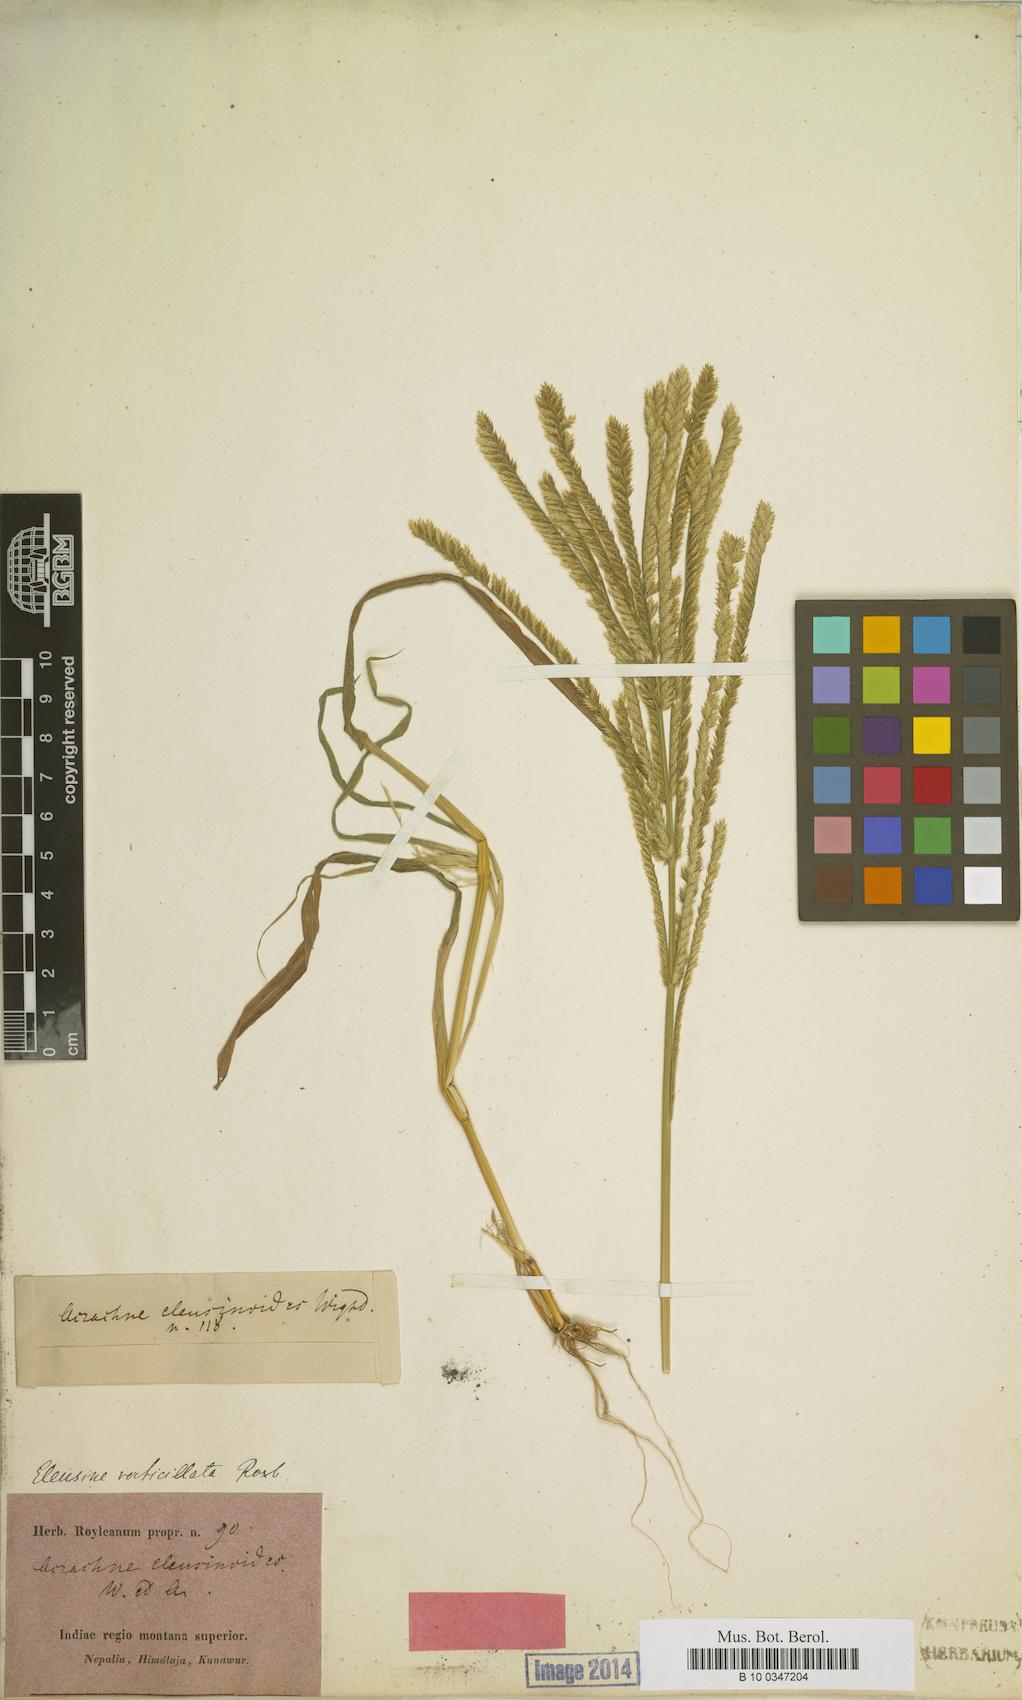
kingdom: Plantae
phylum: Tracheophyta
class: Liliopsida
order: Poales
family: Poaceae
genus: Acrachne
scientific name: Acrachne racemosa
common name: Goosegrass
